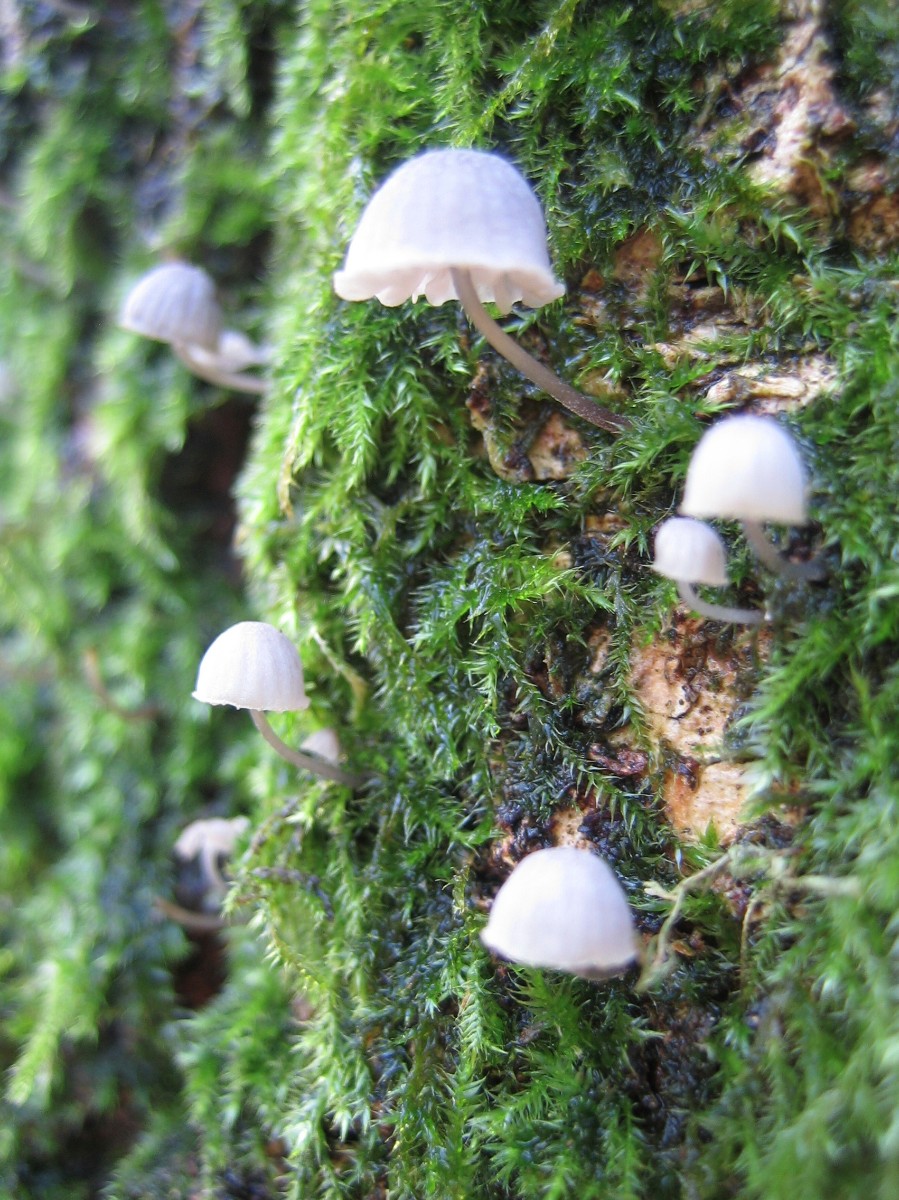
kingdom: Fungi
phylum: Basidiomycota
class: Agaricomycetes
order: Agaricales
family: Mycenaceae
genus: Mycena
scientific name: Mycena pseudocorticola
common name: gråblå bark-huesvamp
